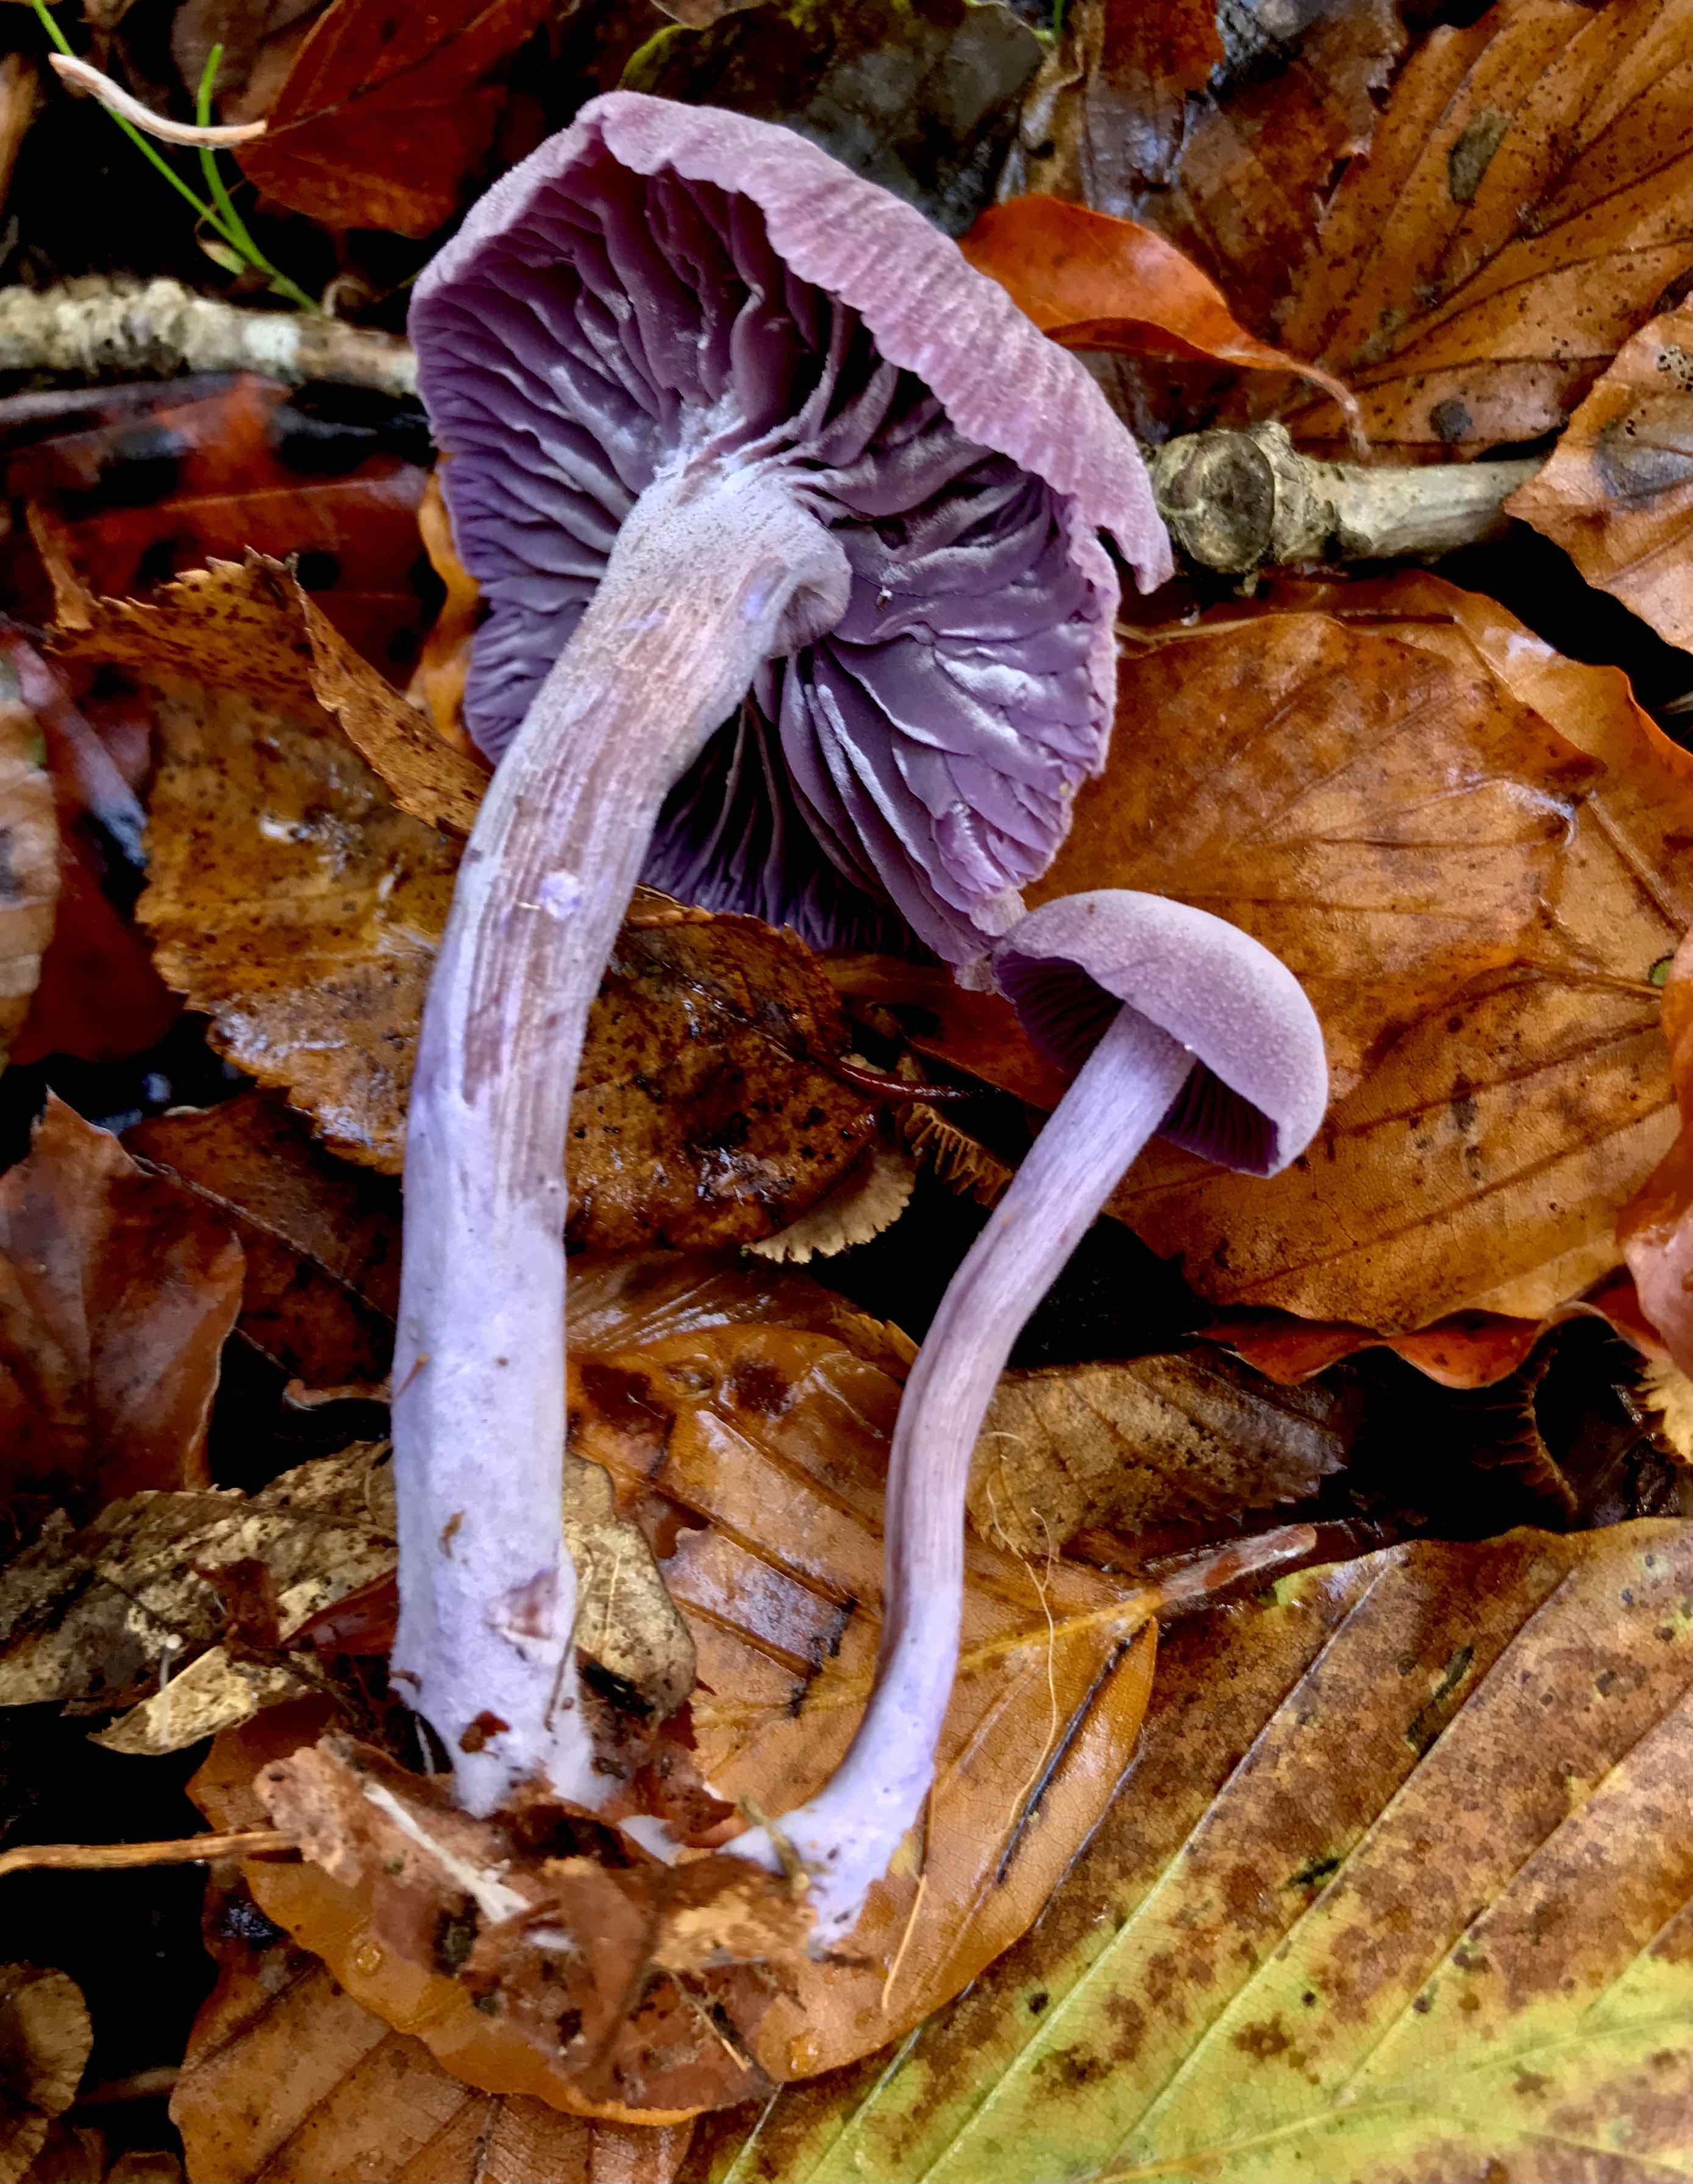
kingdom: Fungi
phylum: Basidiomycota
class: Agaricomycetes
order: Agaricales
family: Hydnangiaceae
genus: Laccaria
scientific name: Laccaria amethystina
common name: violet ametysthat
